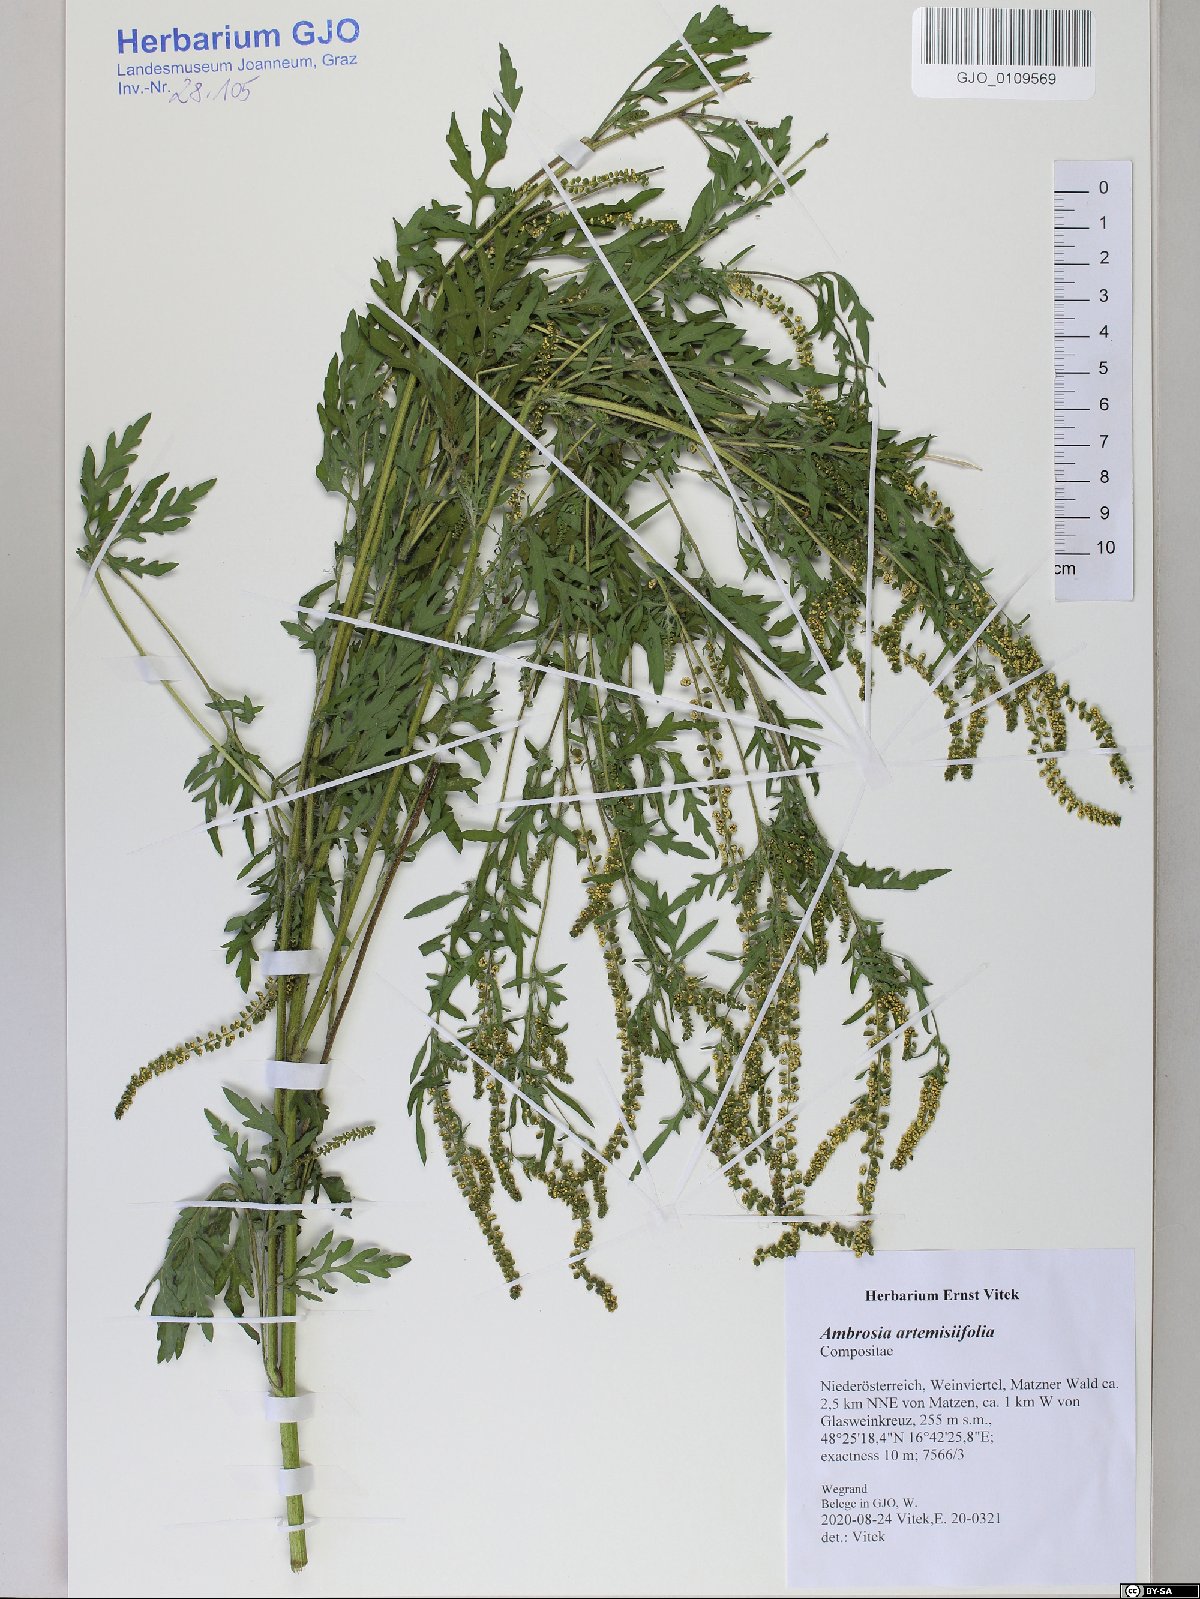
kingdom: Plantae
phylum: Tracheophyta
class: Magnoliopsida
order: Asterales
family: Asteraceae
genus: Ambrosia
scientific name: Ambrosia artemisiifolia
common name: Annual ragweed
